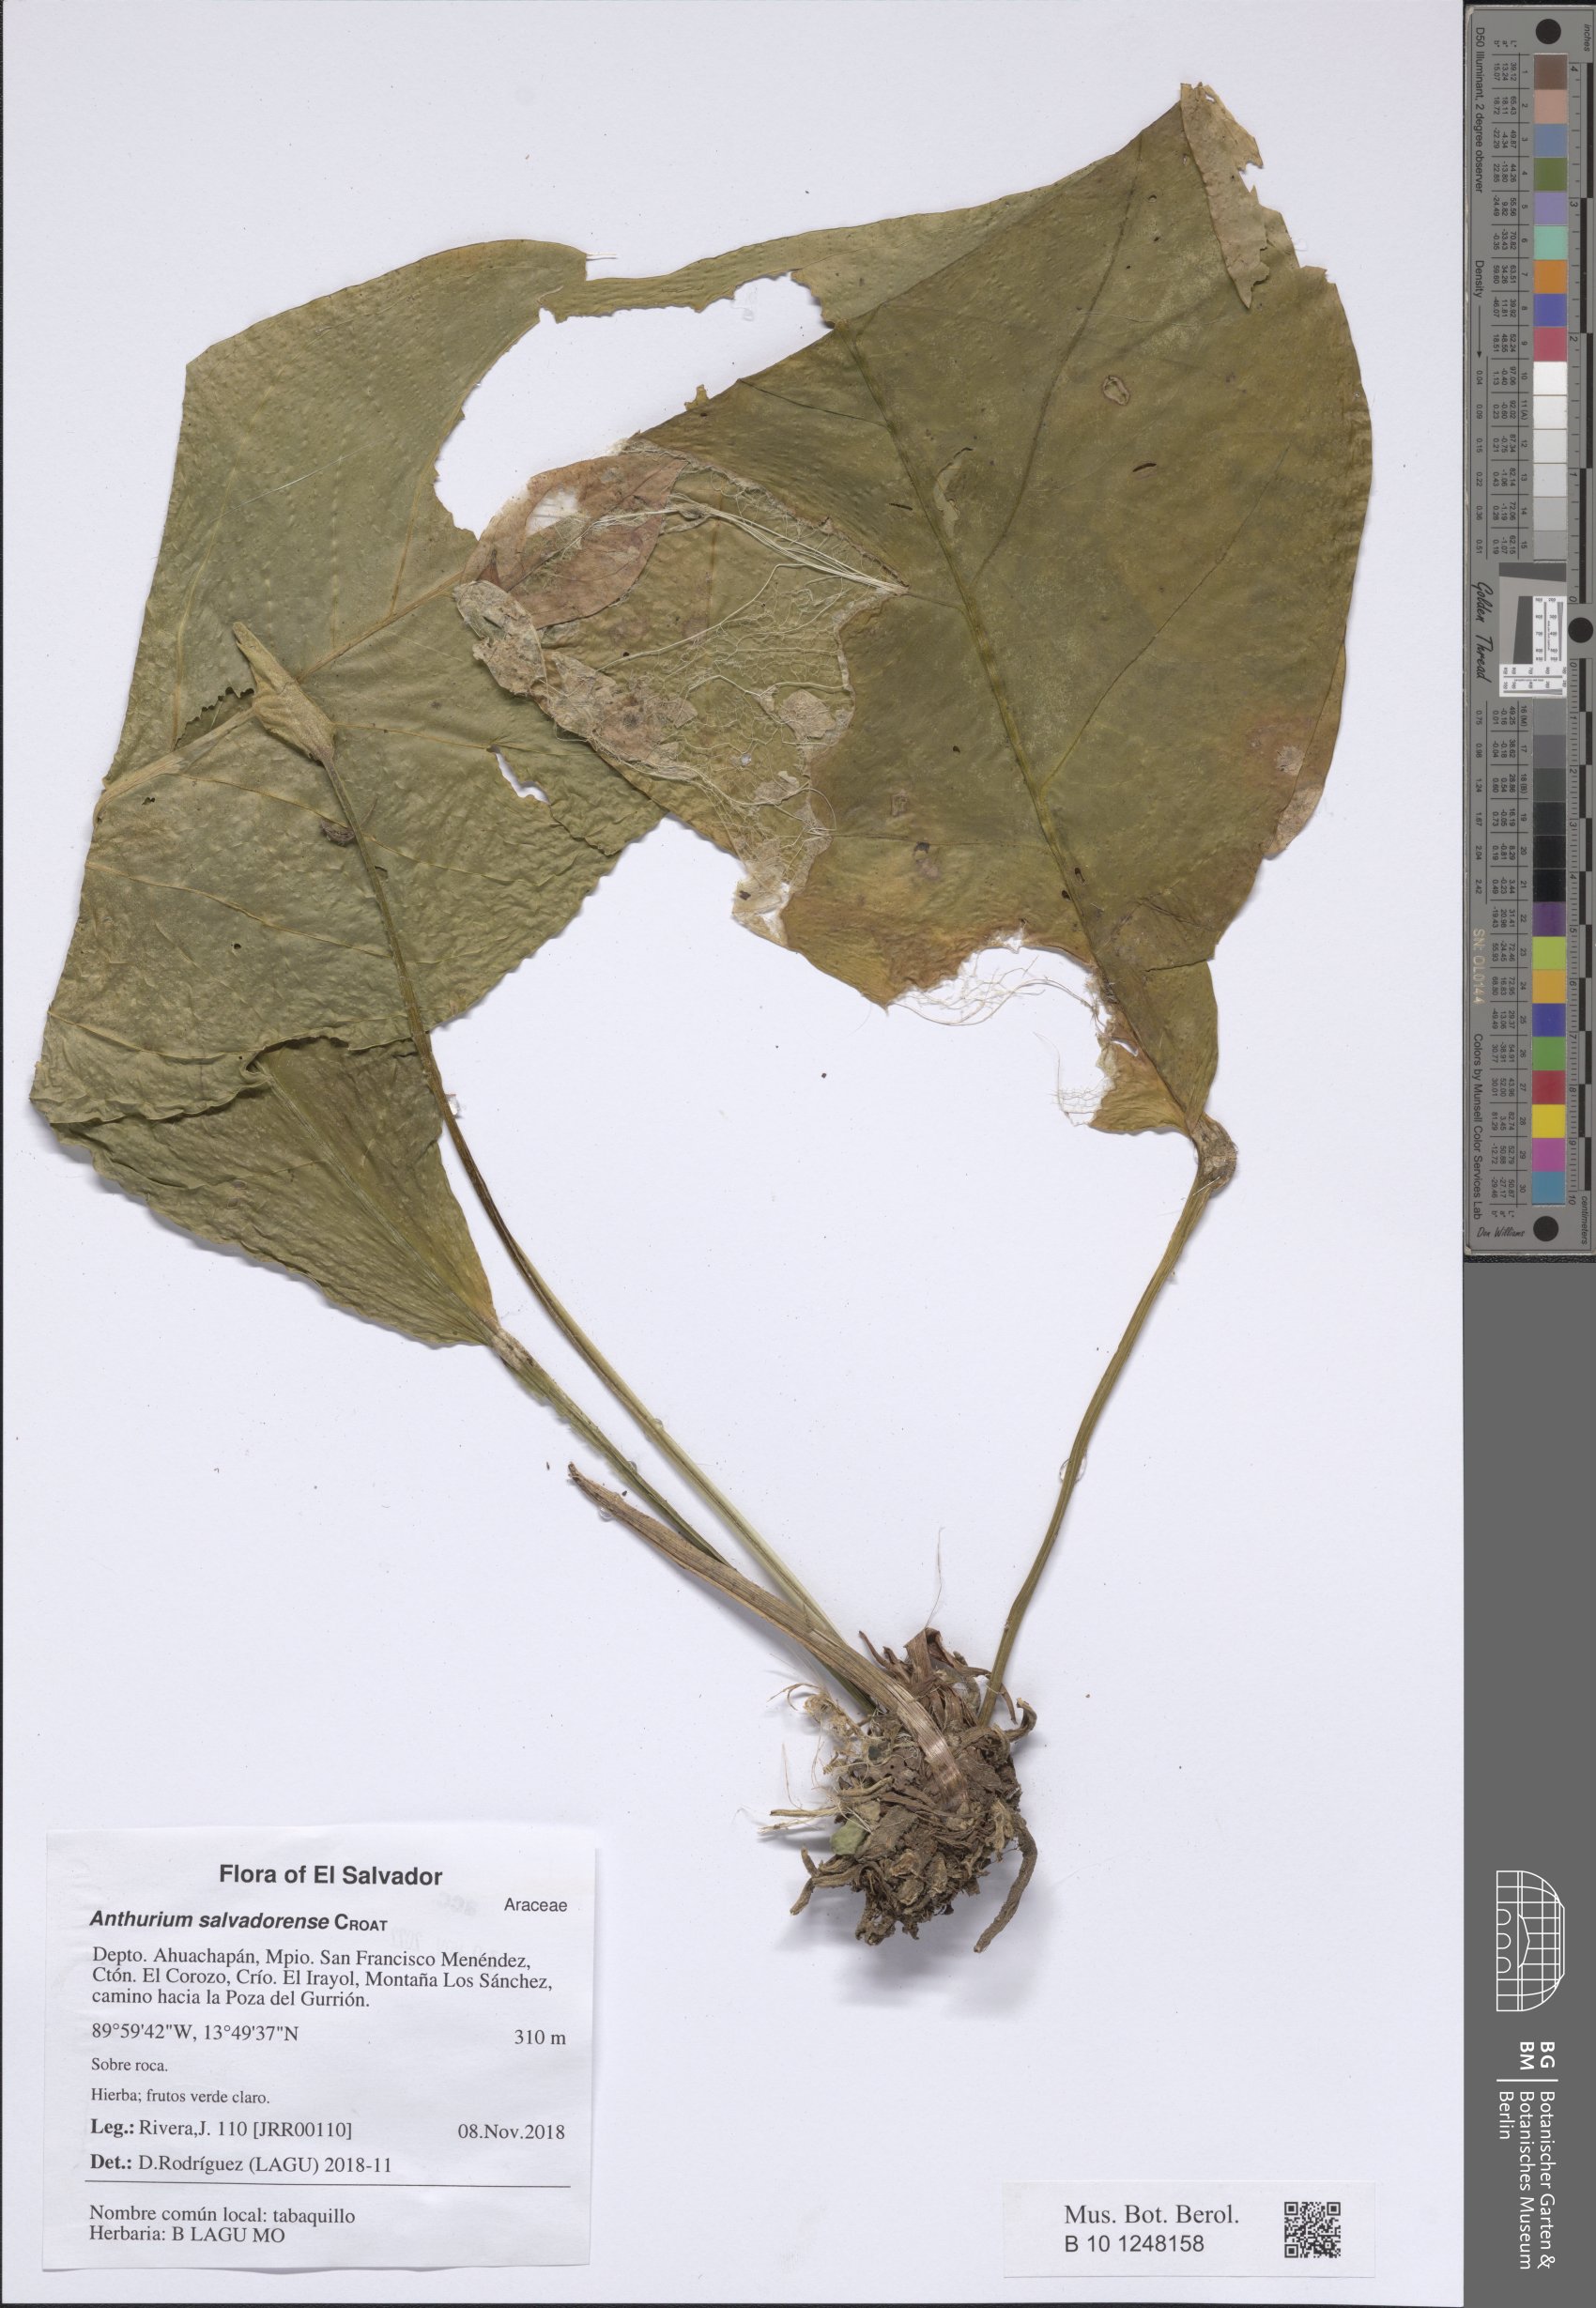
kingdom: Plantae
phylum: Tracheophyta
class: Liliopsida
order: Alismatales
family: Araceae
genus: Anthurium
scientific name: Anthurium salvadorense
